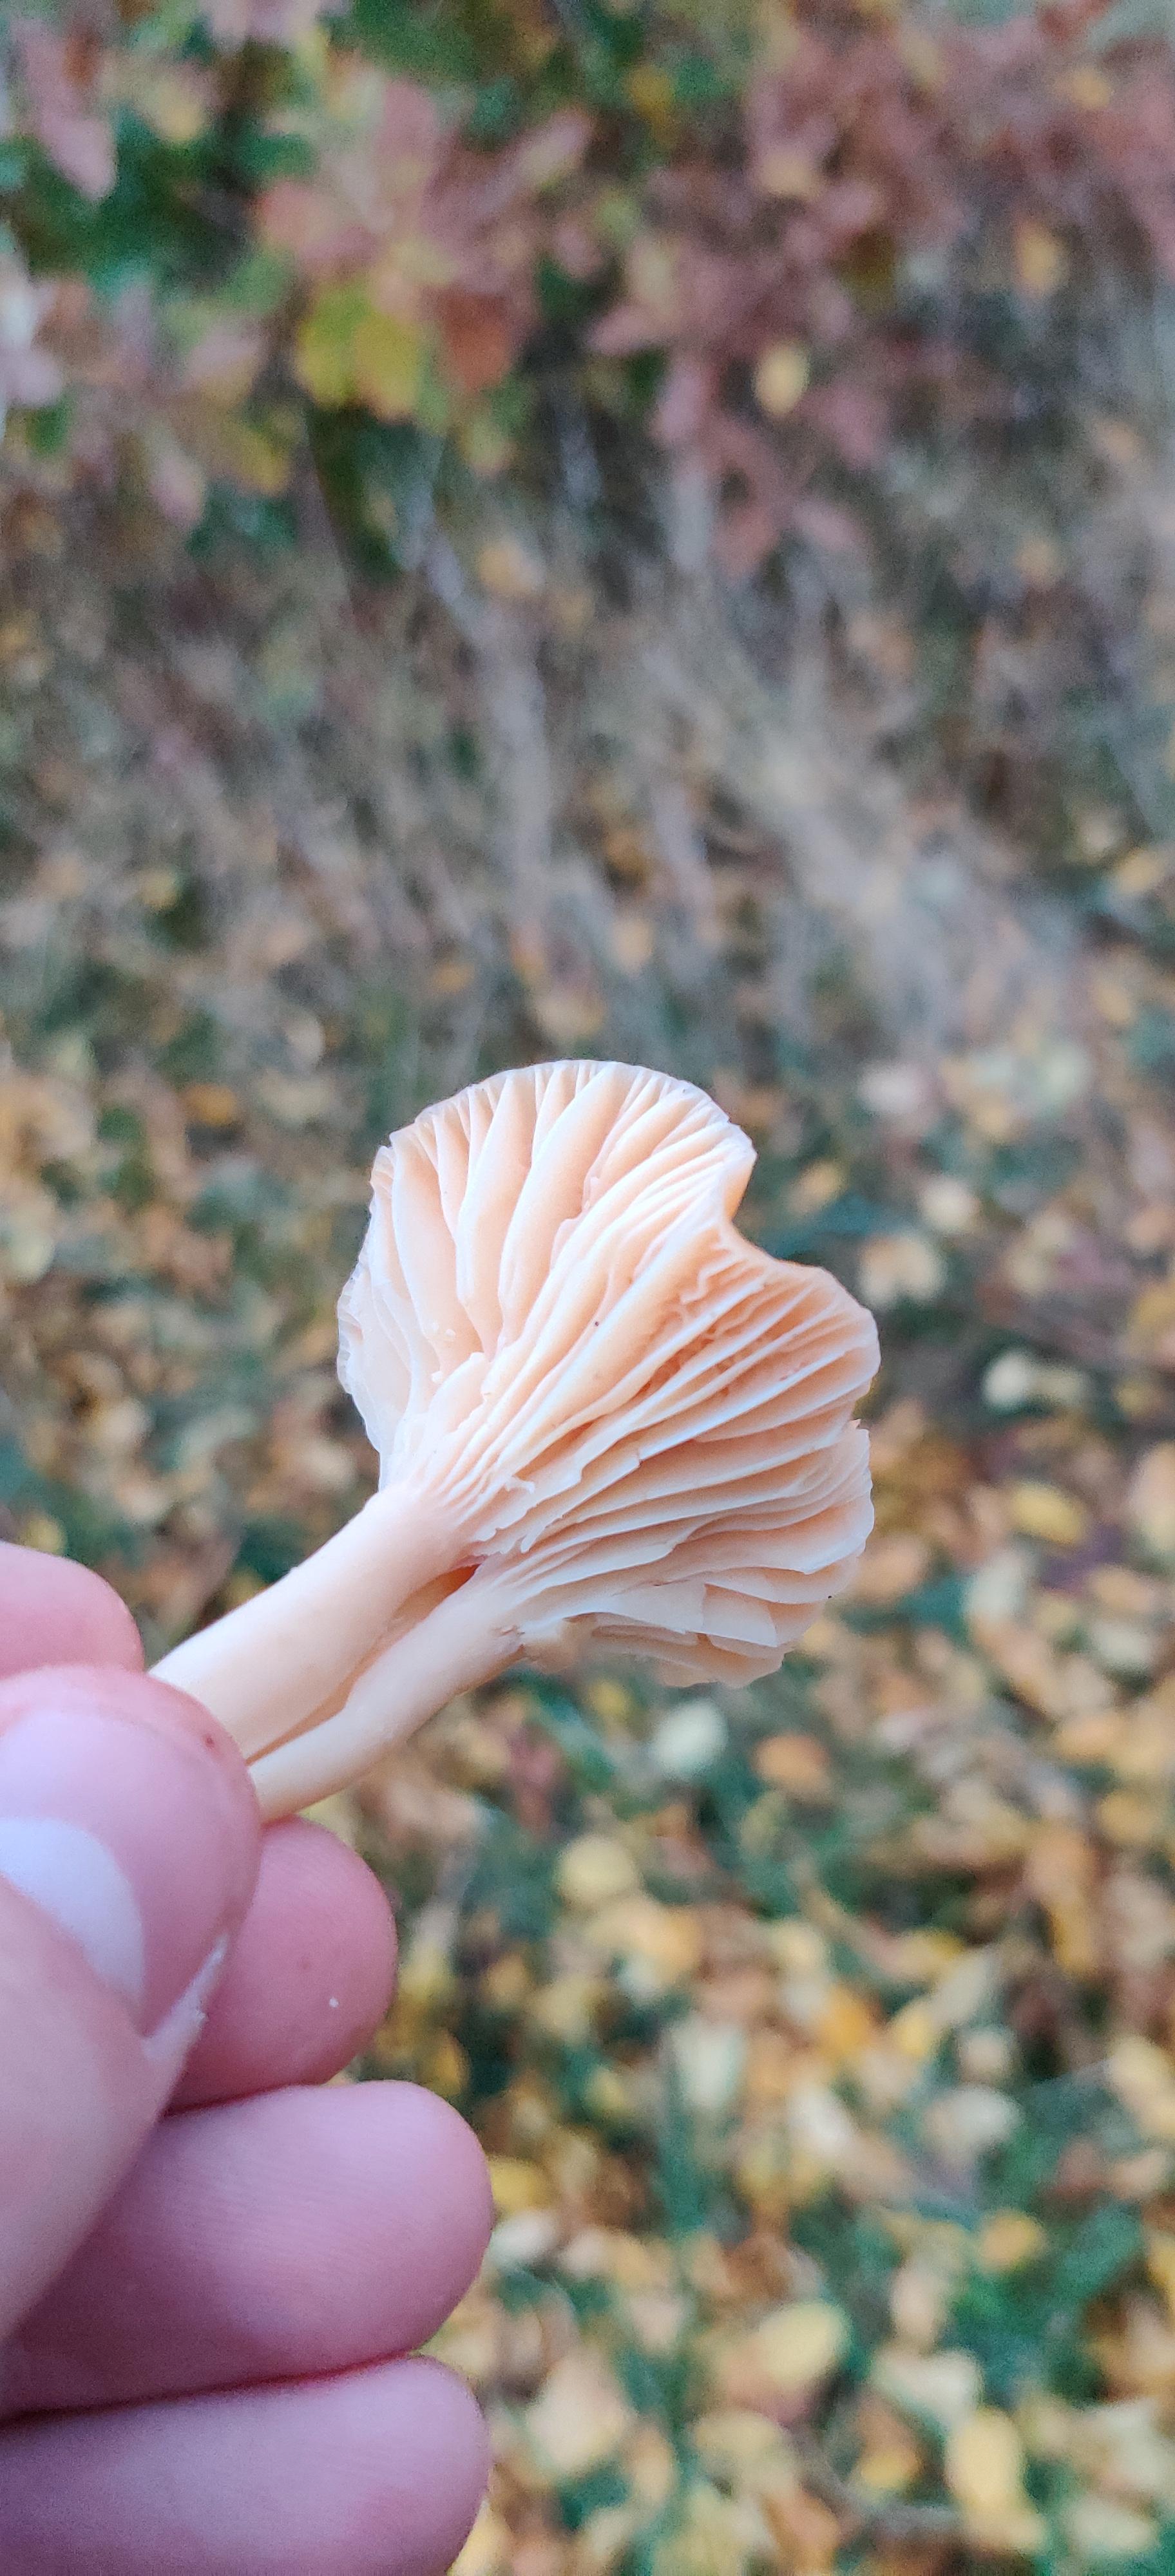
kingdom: Fungi
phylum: Basidiomycota
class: Agaricomycetes
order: Agaricales
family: Hygrophoraceae
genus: Cuphophyllus
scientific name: Cuphophyllus pratensis
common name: eng-vokshat
